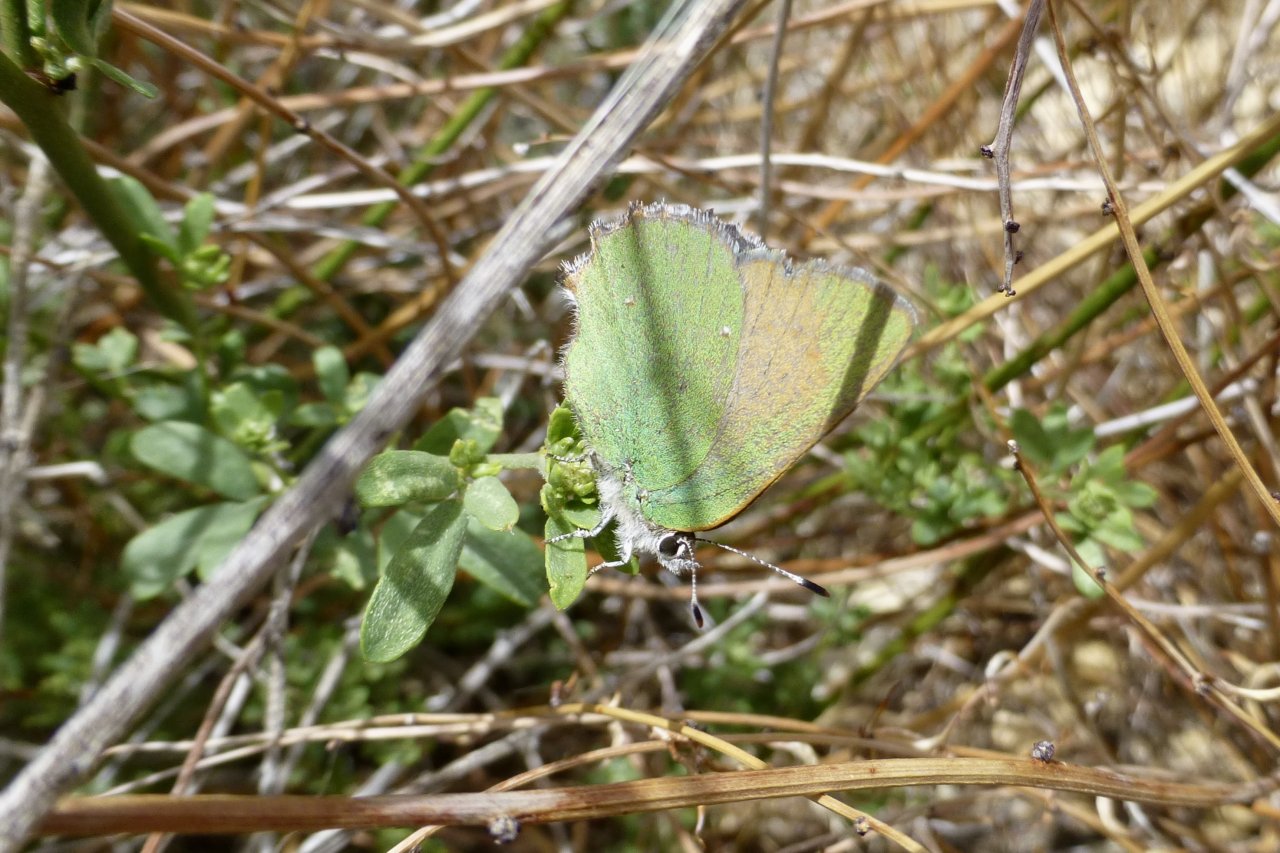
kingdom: Animalia
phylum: Arthropoda
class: Insecta
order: Lepidoptera
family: Lycaenidae
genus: Callophrys
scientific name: Callophrys dumetorum
